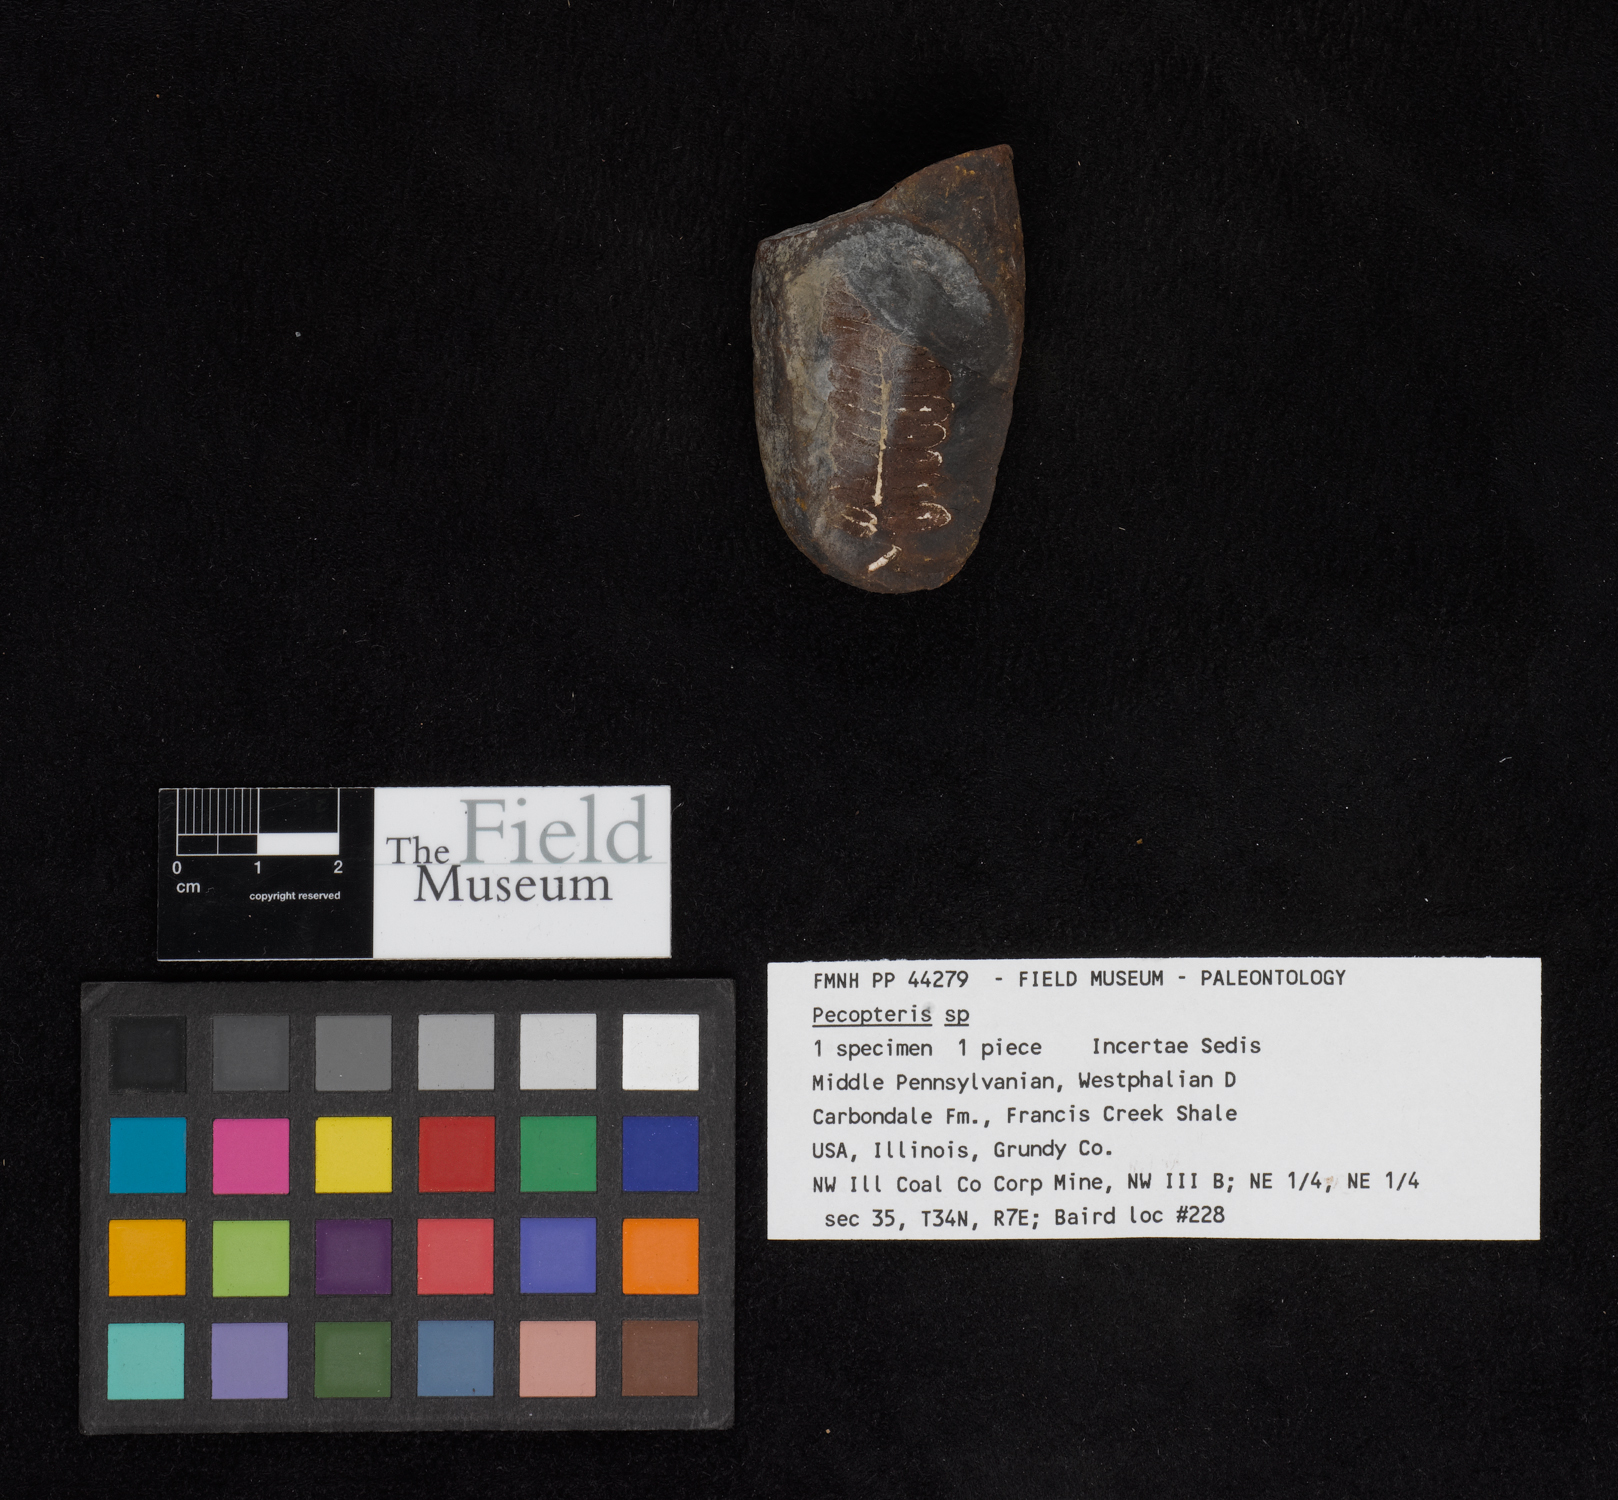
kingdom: Plantae
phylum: Tracheophyta
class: Polypodiopsida
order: Marattiales
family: Asterothecaceae
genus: Pecopteris
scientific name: Pecopteris
